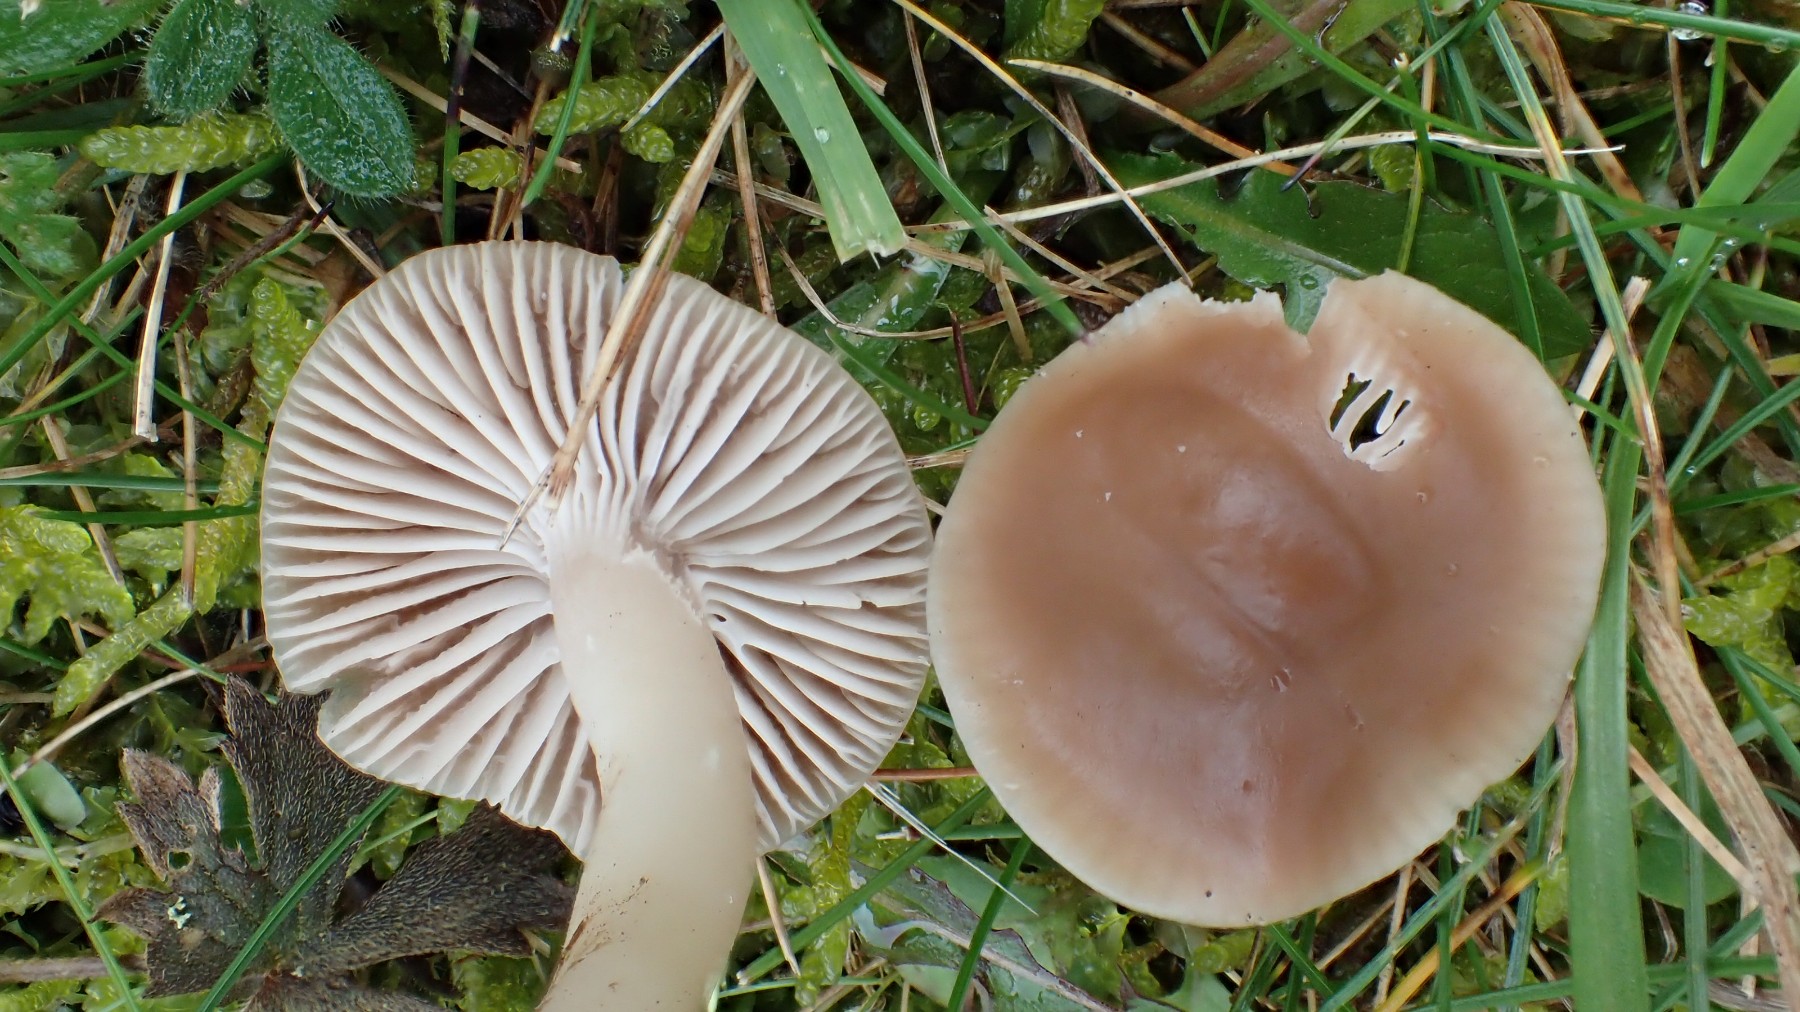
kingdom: Fungi
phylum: Basidiomycota
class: Agaricomycetes
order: Agaricales
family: Hygrophoraceae
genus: Cuphophyllus
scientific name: Cuphophyllus colemannianus
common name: rødbrun vokshat
